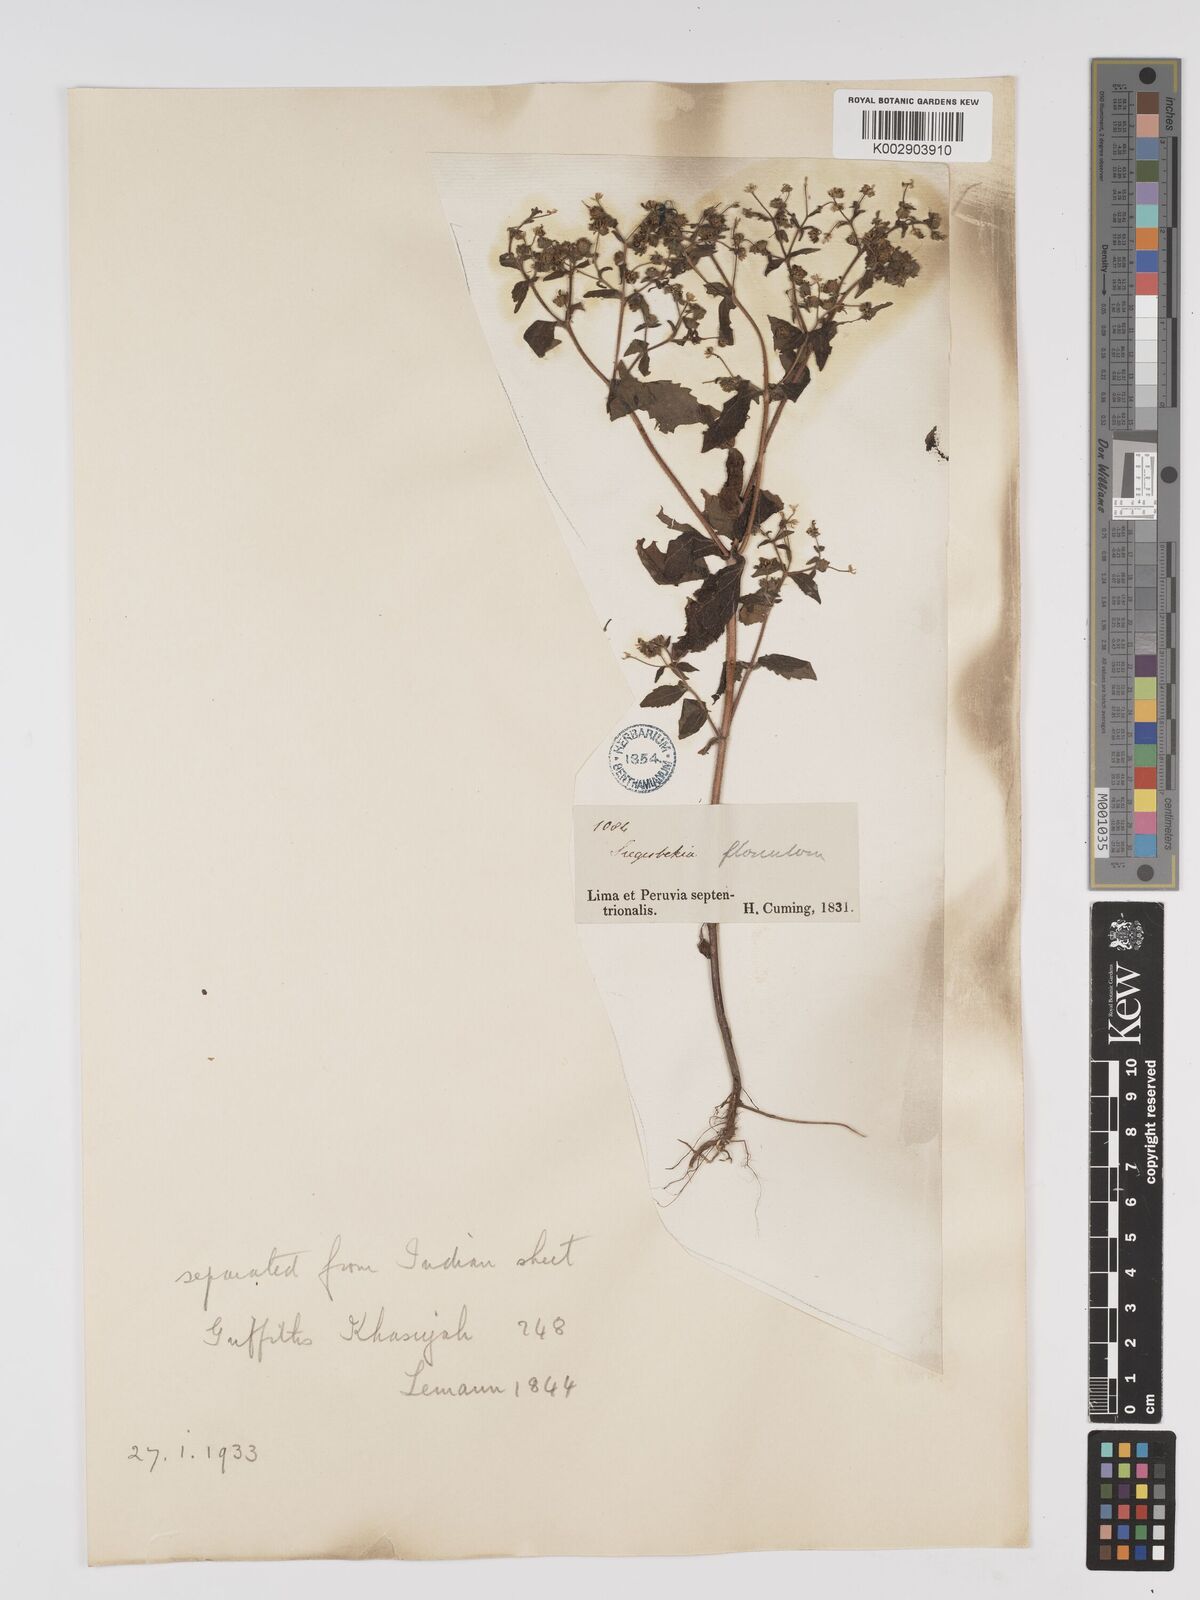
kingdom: Plantae
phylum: Tracheophyta
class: Magnoliopsida
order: Asterales
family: Asteraceae
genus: Sigesbeckia
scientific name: Sigesbeckia flosculosa
